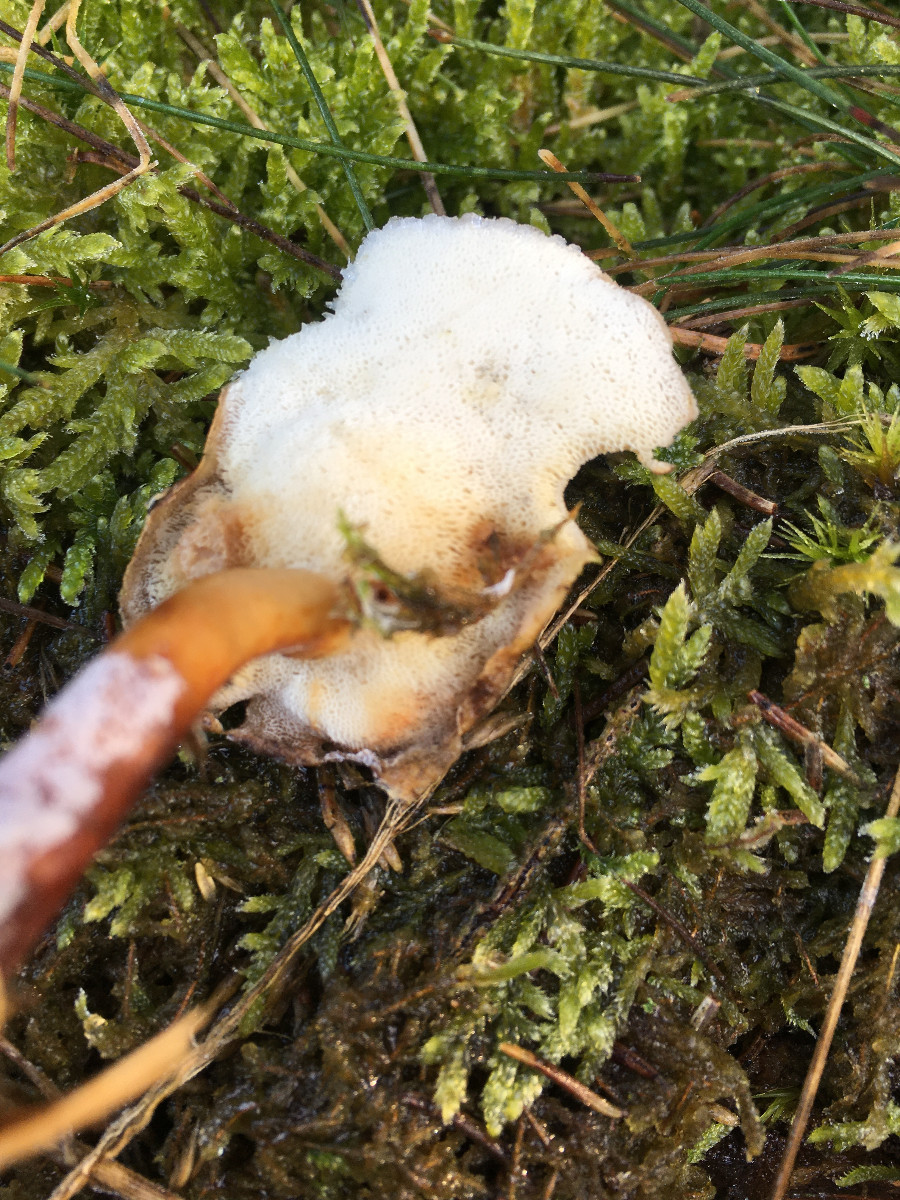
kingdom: Fungi
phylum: Basidiomycota
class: Agaricomycetes
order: Polyporales
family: Polyporaceae
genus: Lentinus
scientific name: Lentinus brumalis
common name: vinter-stilkporesvamp
